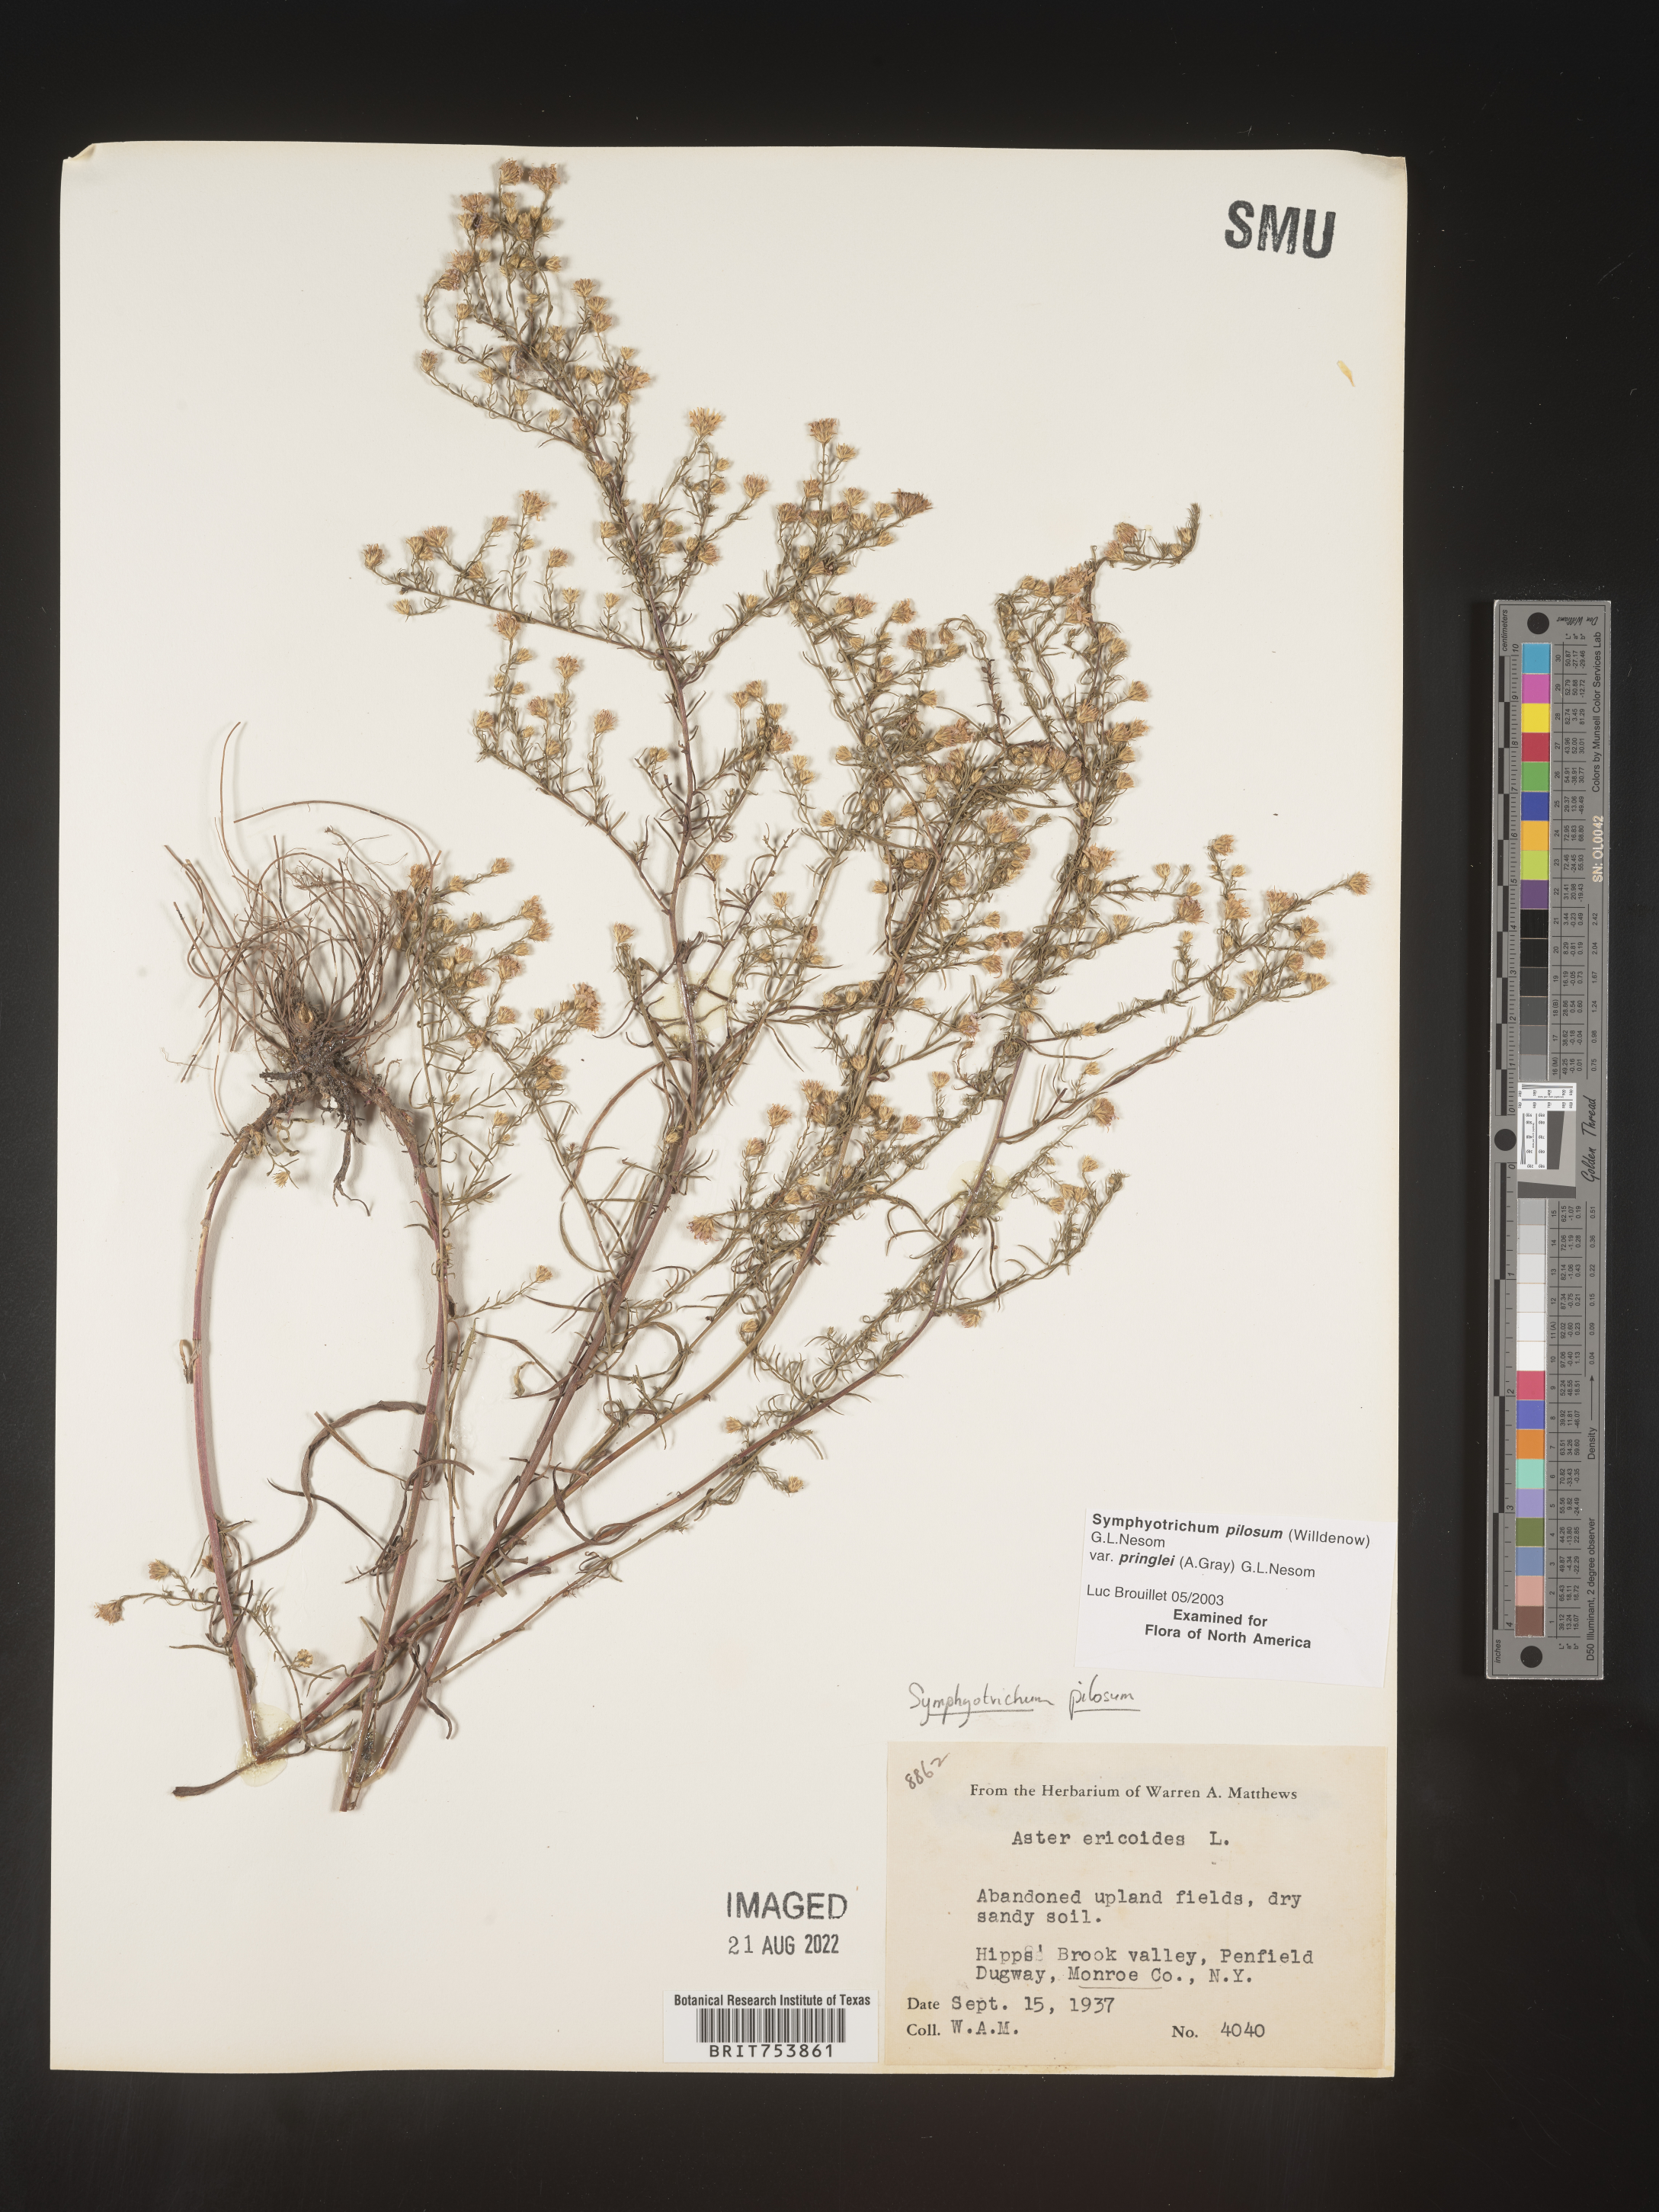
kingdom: Plantae
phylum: Tracheophyta
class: Magnoliopsida
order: Asterales
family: Asteraceae
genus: Symphyotrichum
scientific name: Symphyotrichum pilosum
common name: Awl aster
